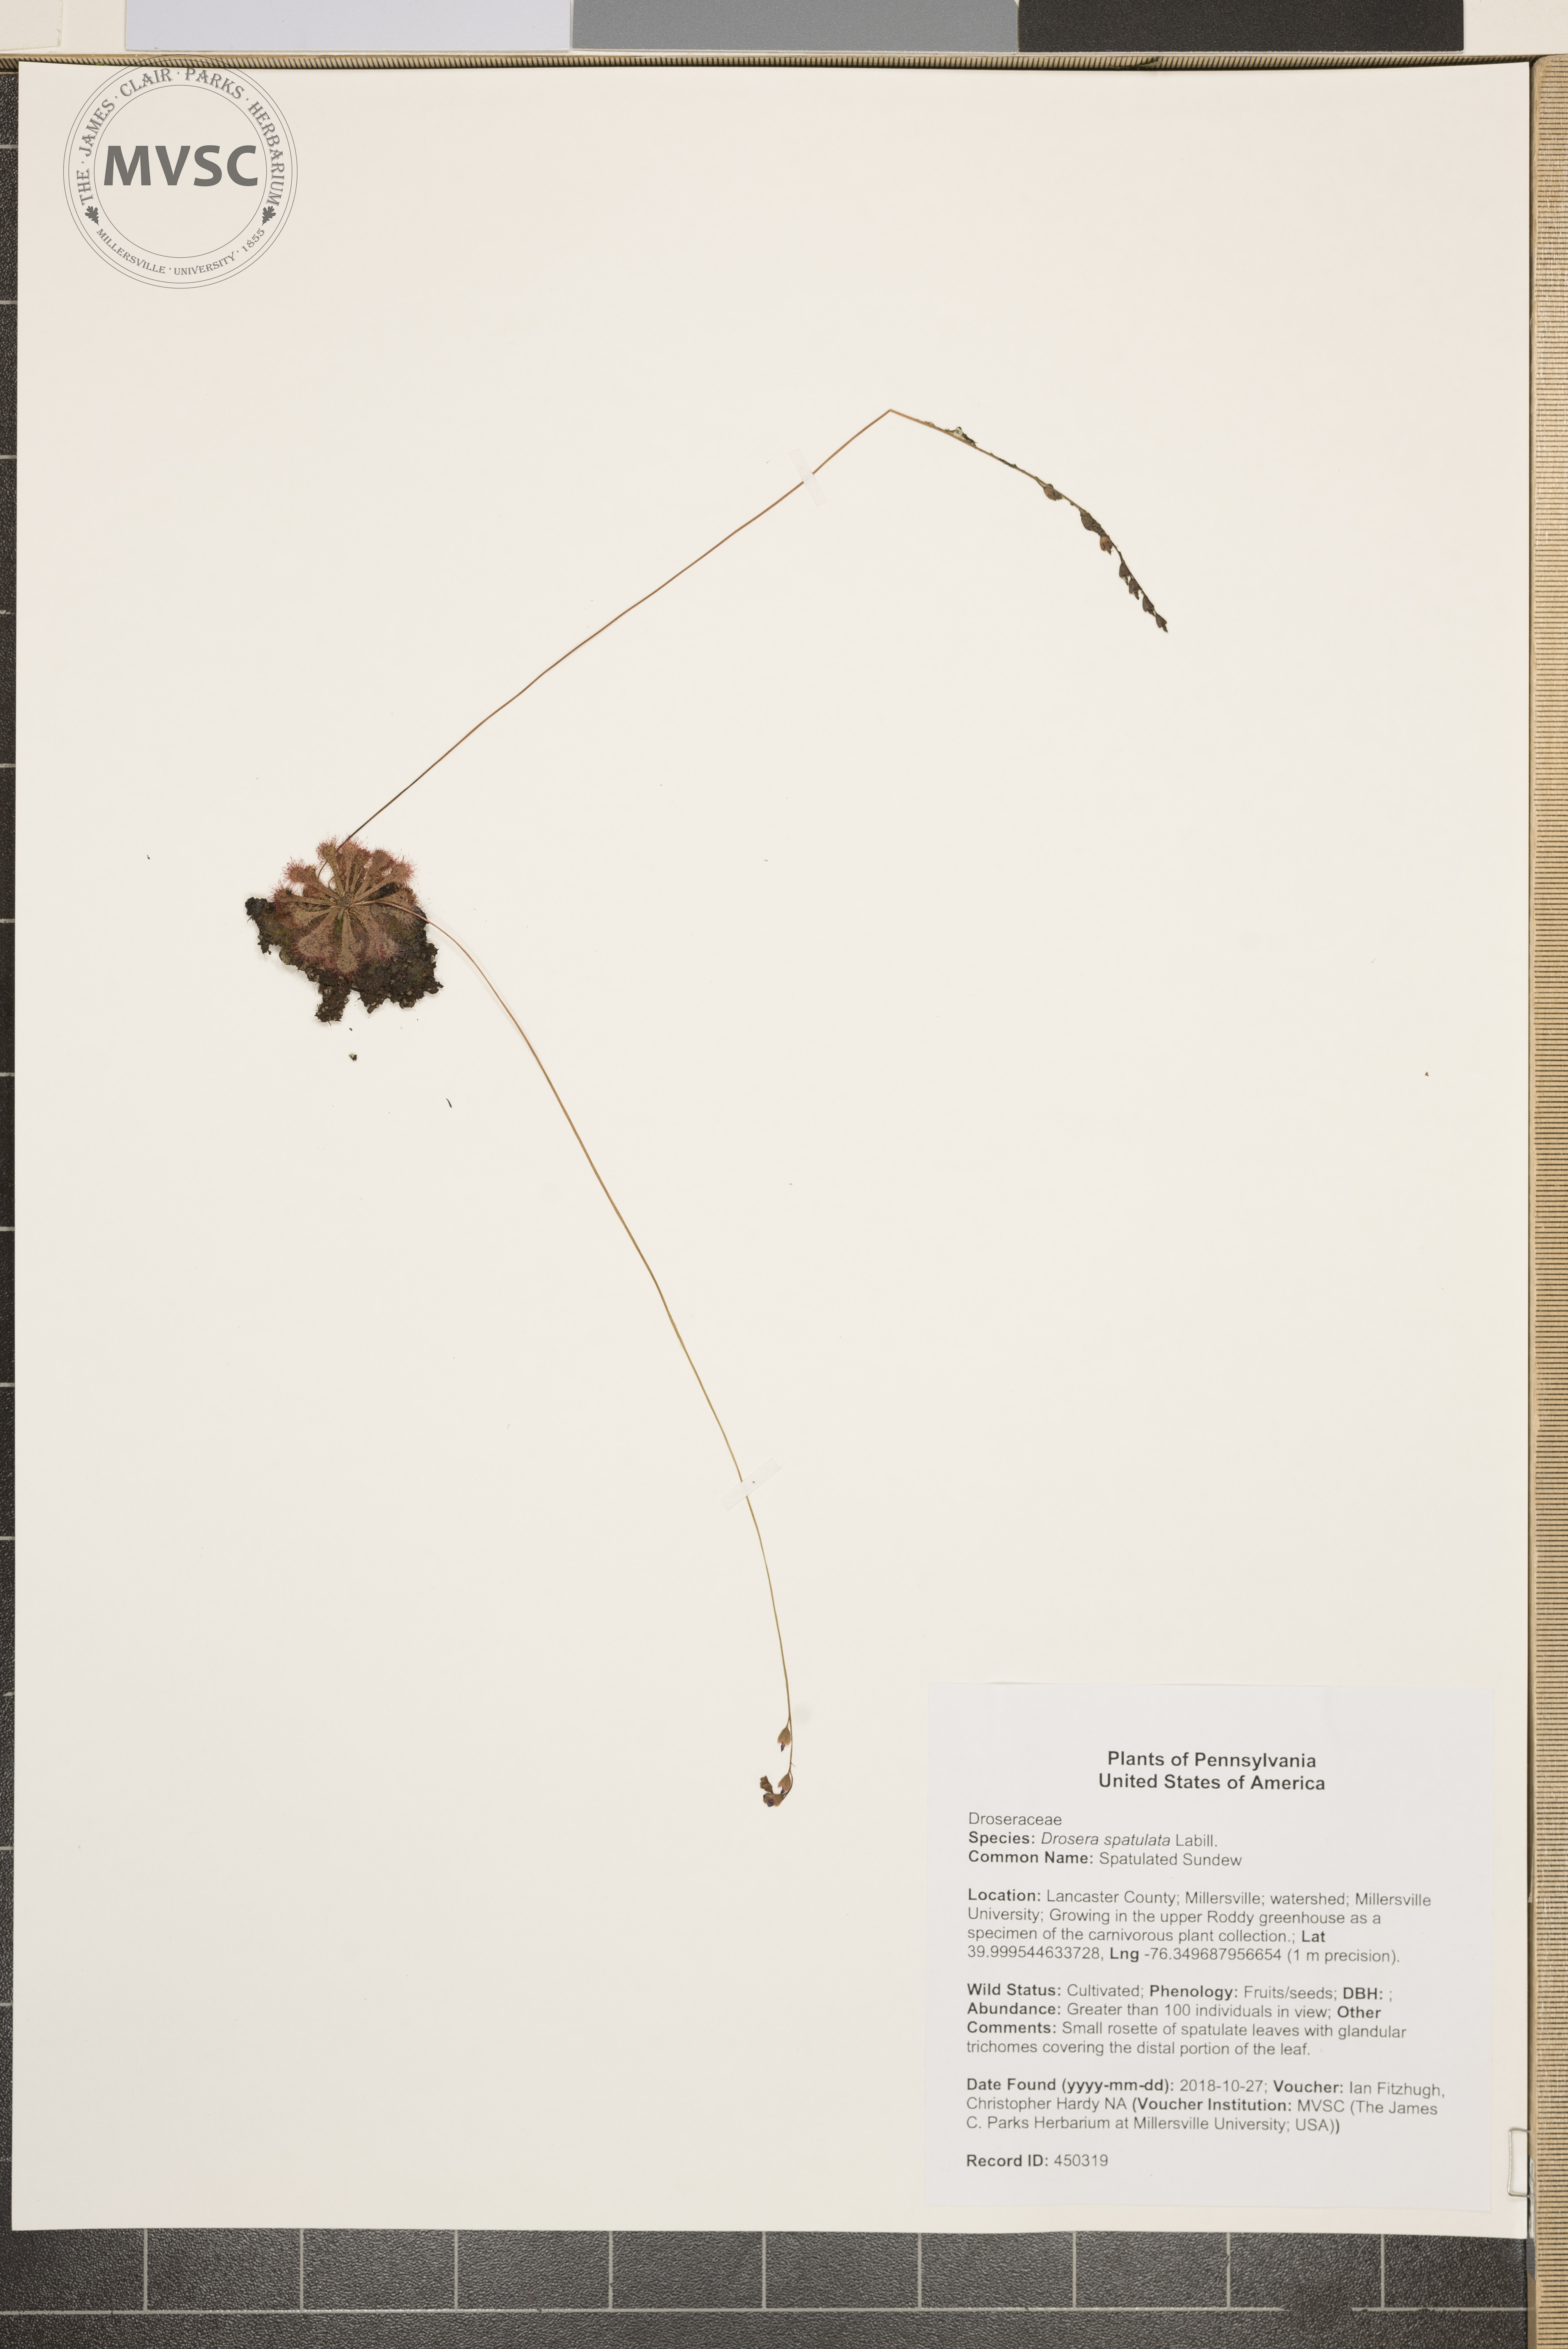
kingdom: Plantae
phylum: Tracheophyta
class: Magnoliopsida
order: Caryophyllales
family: Droseraceae
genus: Drosera
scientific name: Drosera spatulata
